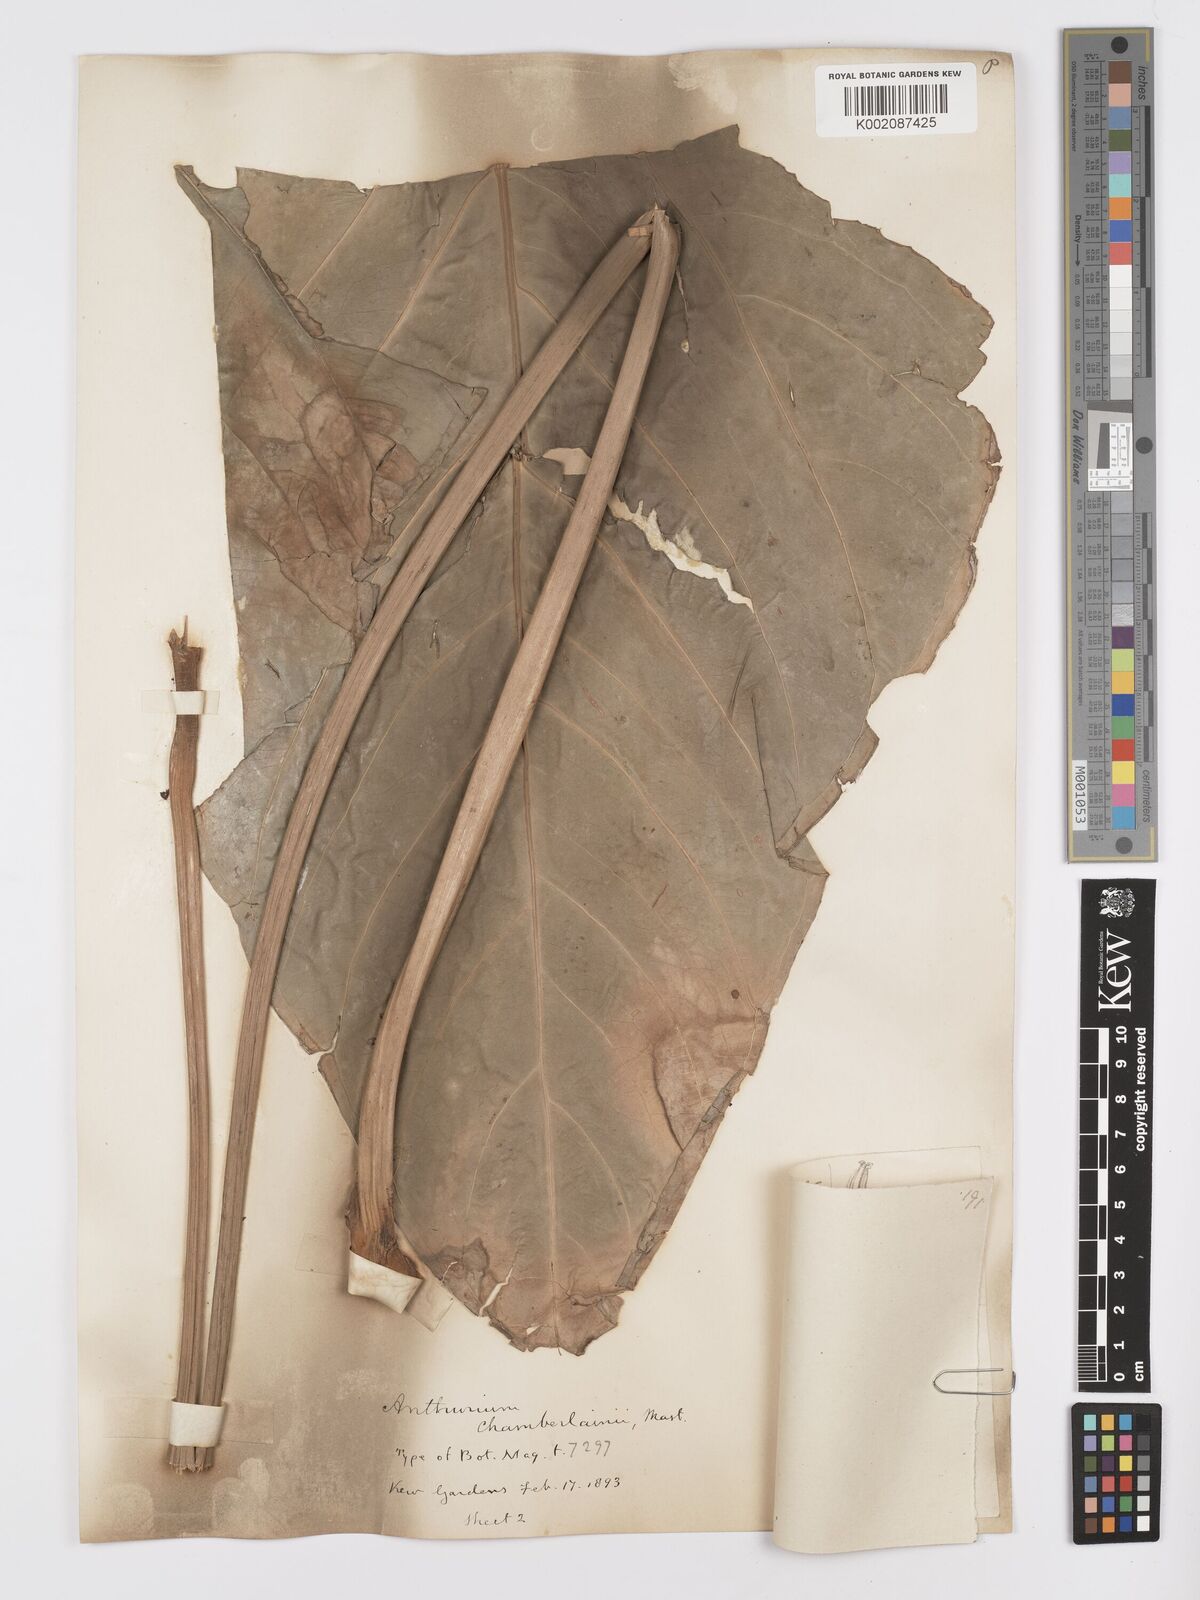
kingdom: Plantae
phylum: Tracheophyta
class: Liliopsida
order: Alismatales
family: Araceae
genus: Anthurium
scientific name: Anthurium chamberlainii
